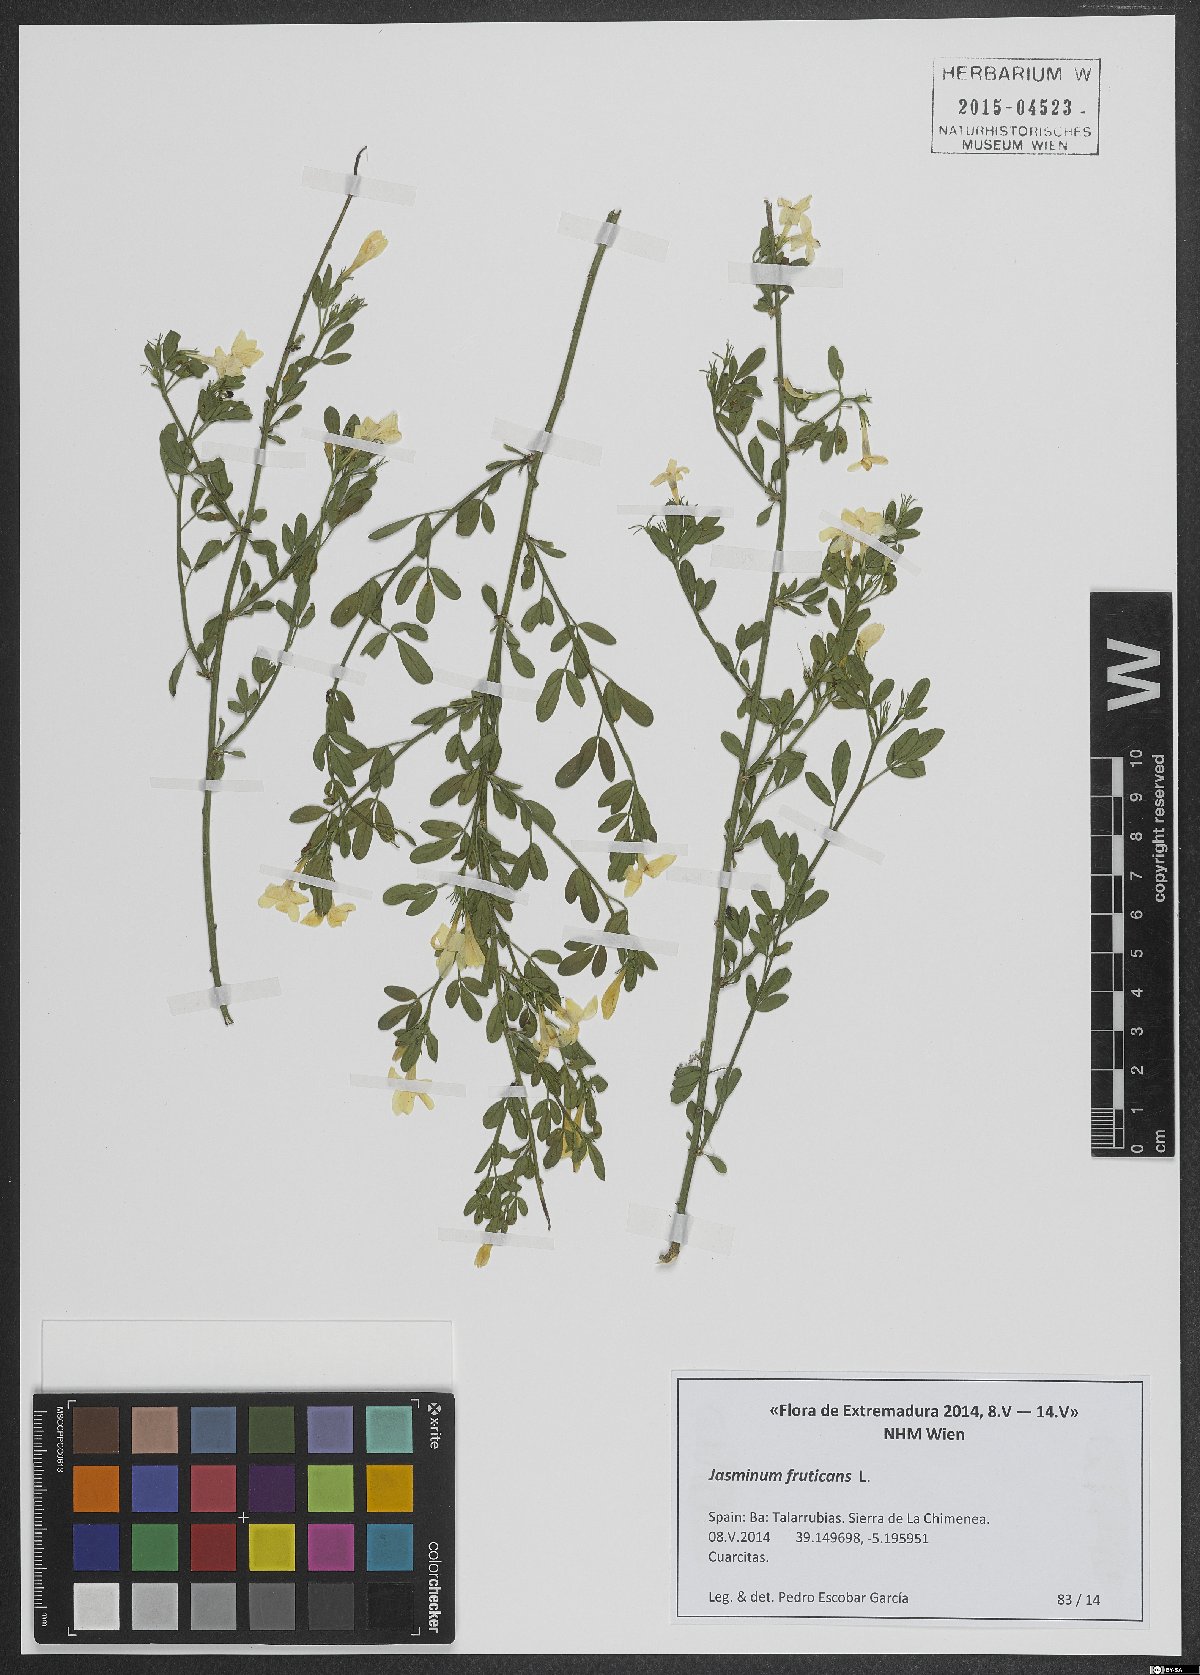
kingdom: Plantae
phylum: Tracheophyta
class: Magnoliopsida
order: Lamiales
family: Oleaceae
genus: Chrysojasminum
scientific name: Chrysojasminum fruticans
